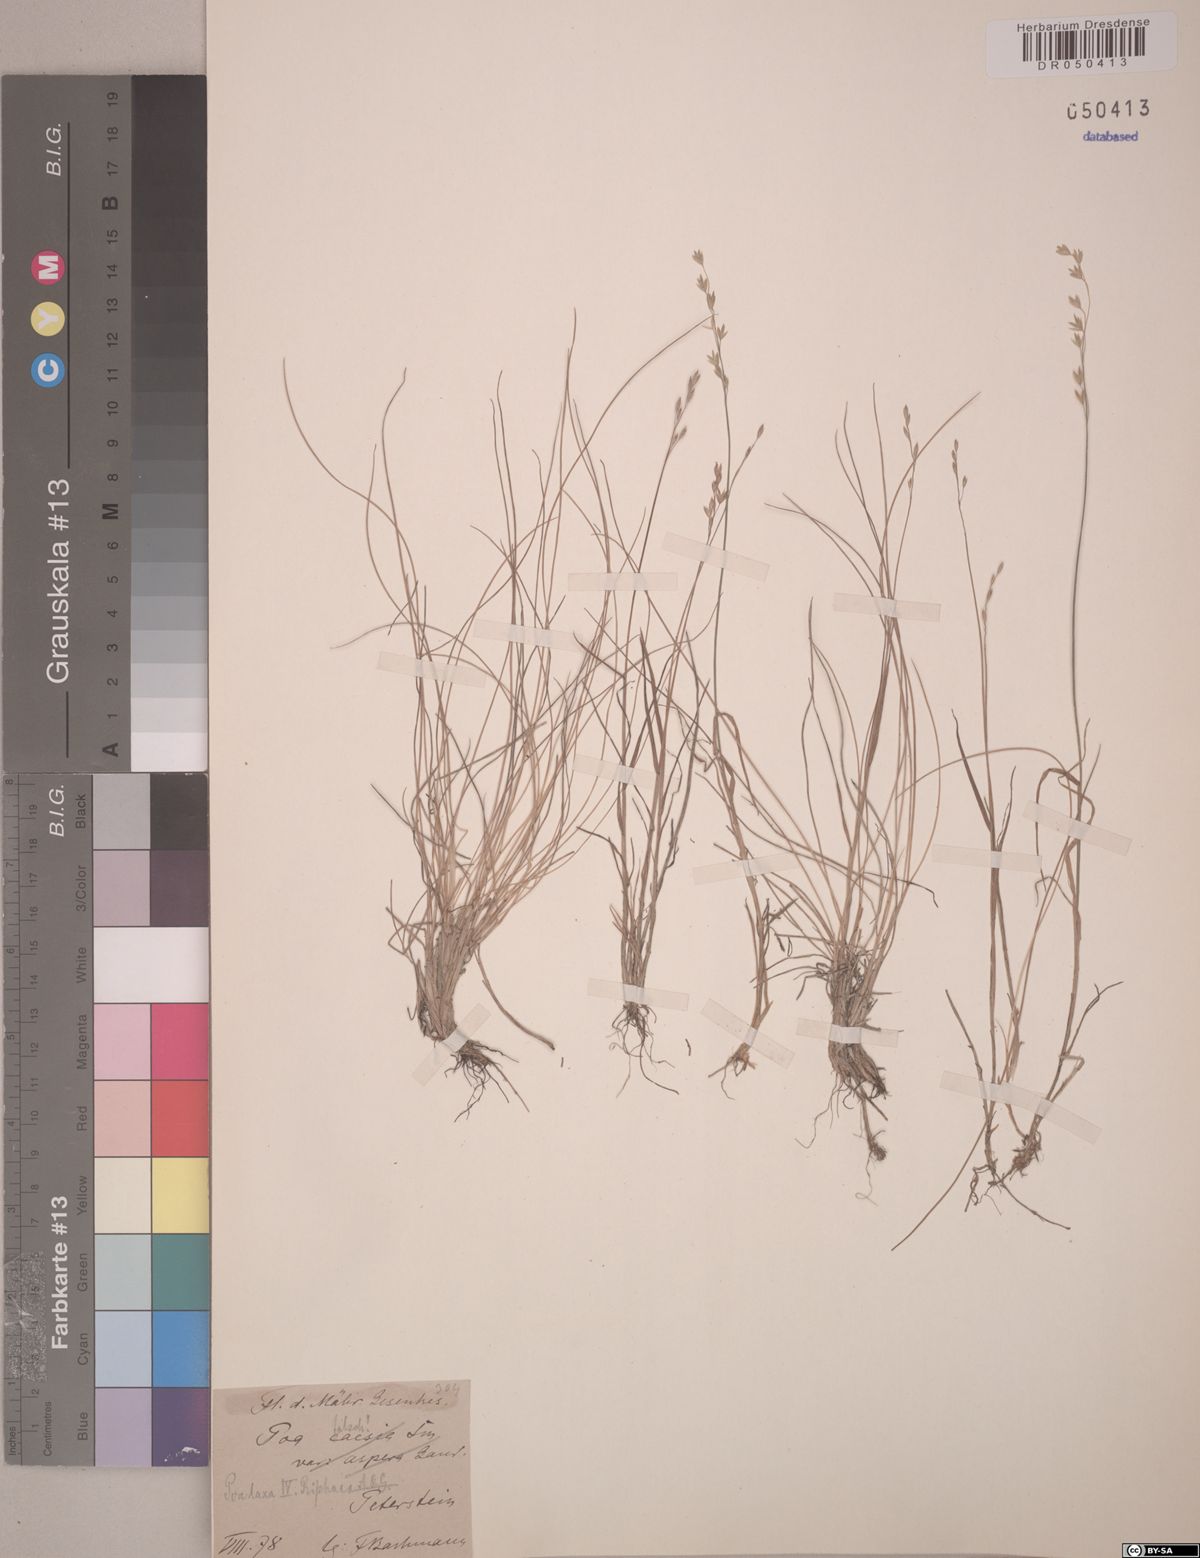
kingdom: Plantae
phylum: Tracheophyta
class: Liliopsida
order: Poales
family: Poaceae
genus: Poa
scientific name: Poa riphaea
